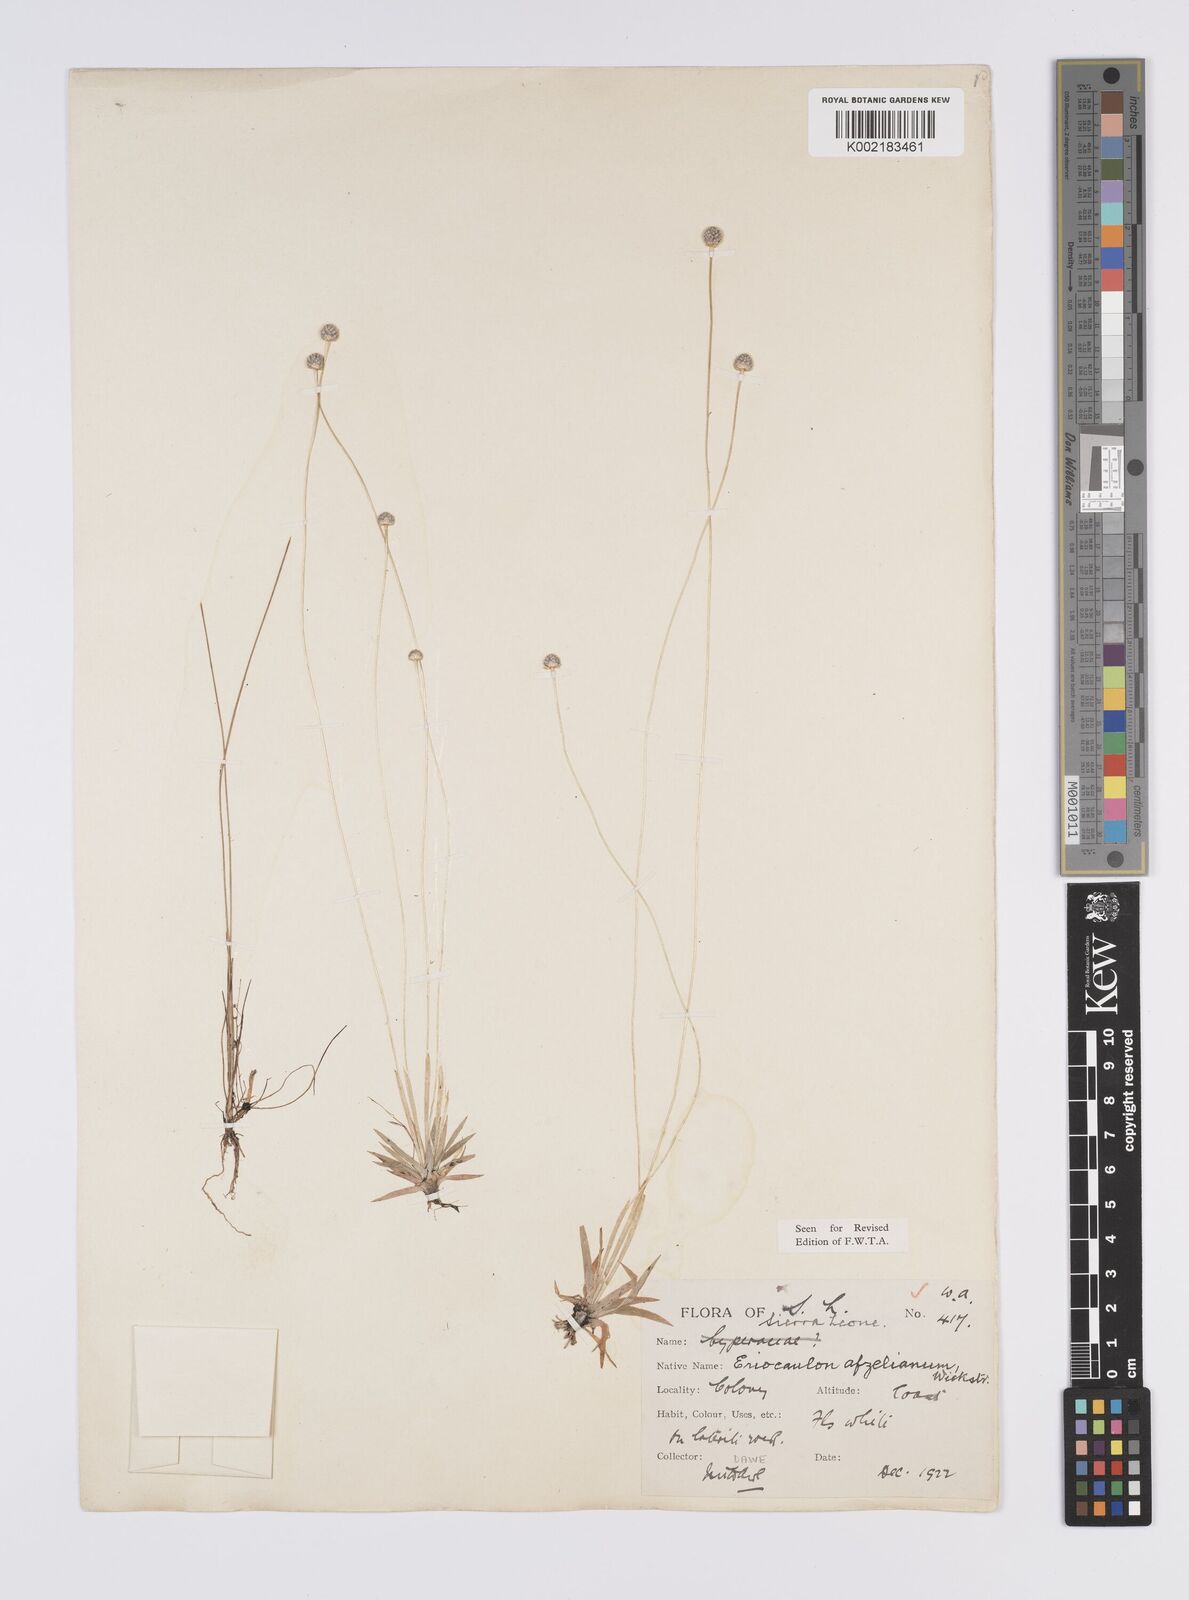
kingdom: Plantae
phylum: Tracheophyta
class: Liliopsida
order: Poales
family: Eriocaulaceae
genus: Eriocaulon
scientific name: Eriocaulon afzelianum
